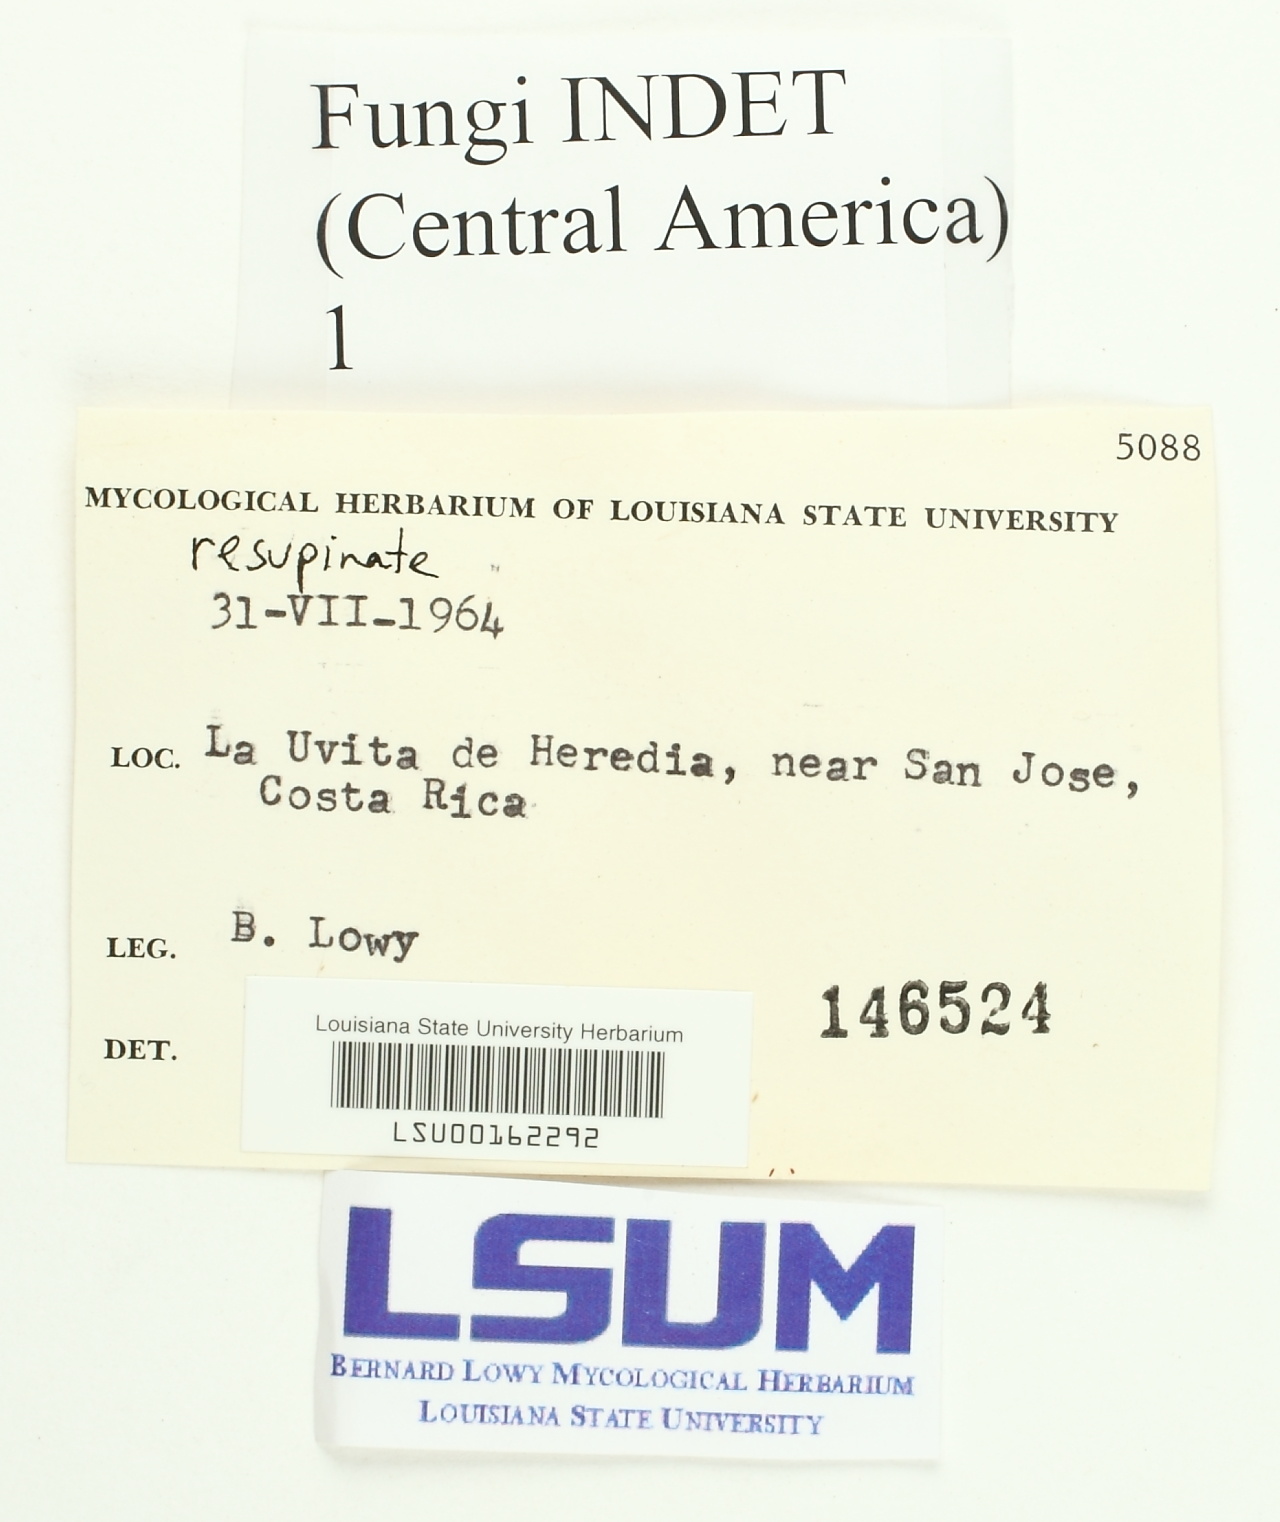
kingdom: Fungi
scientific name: Fungi
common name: Fungi
